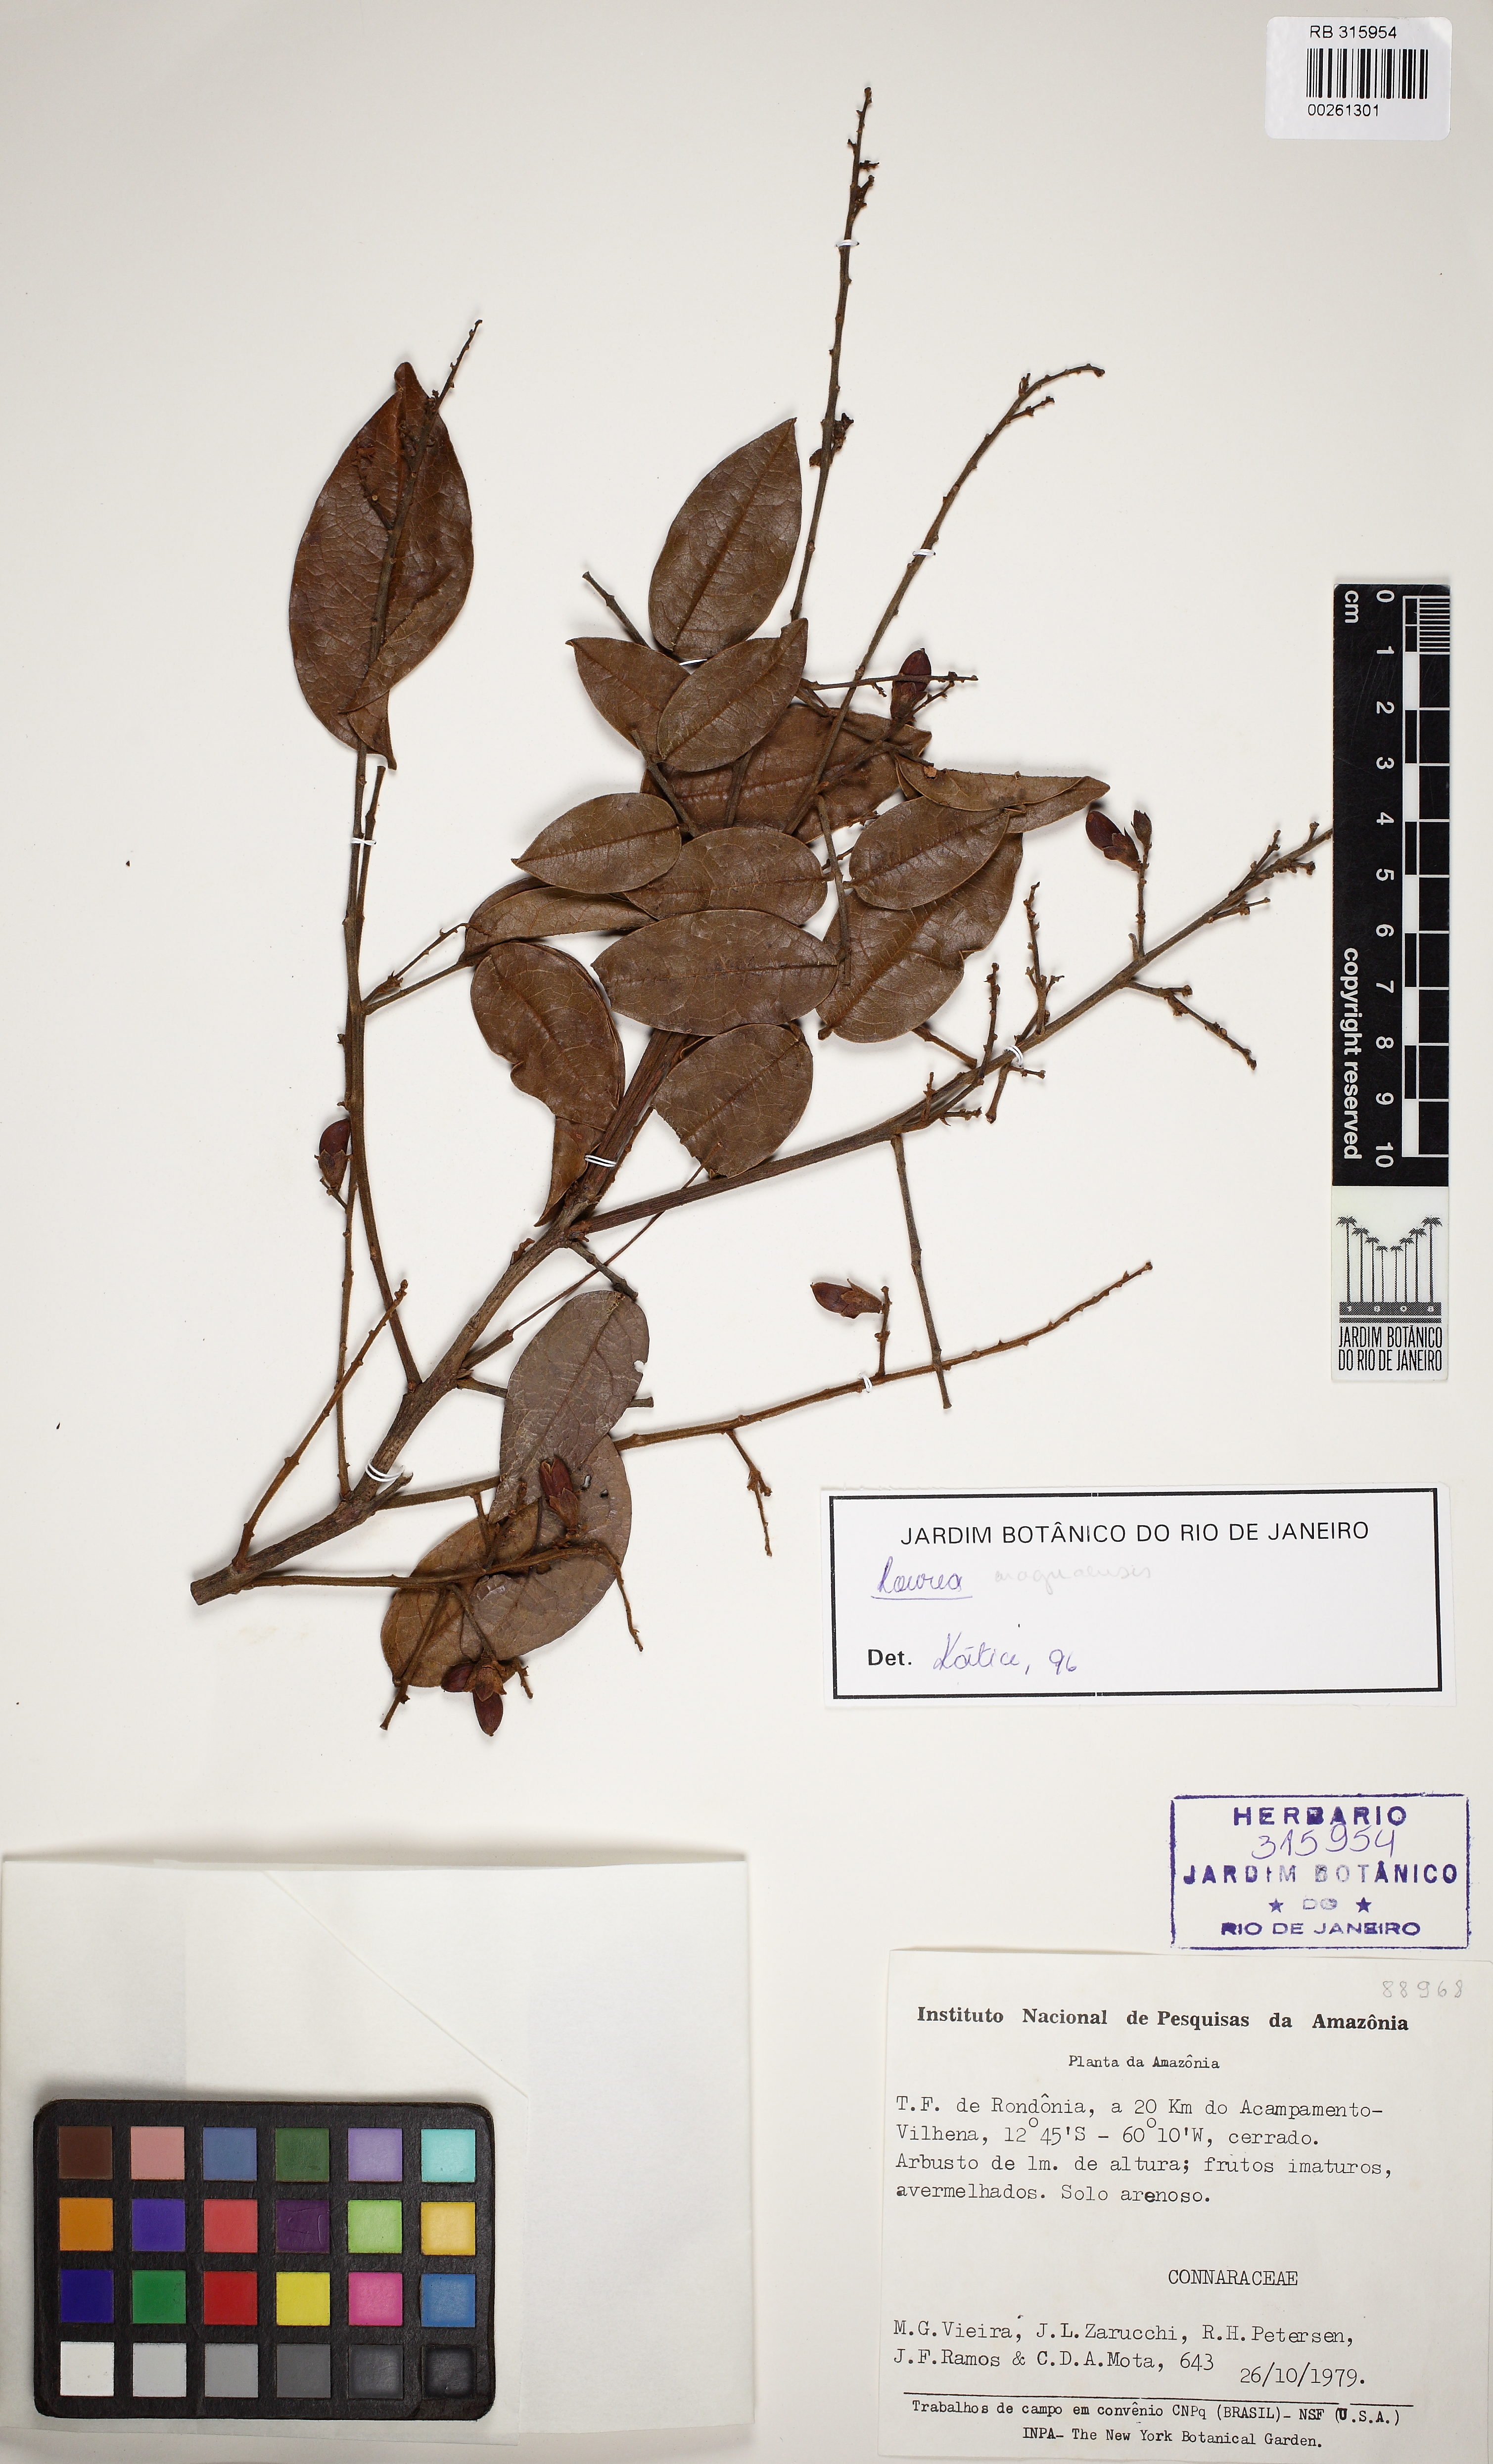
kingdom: Plantae
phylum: Tracheophyta
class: Magnoliopsida
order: Oxalidales
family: Connaraceae
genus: Rourea
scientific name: Rourea
